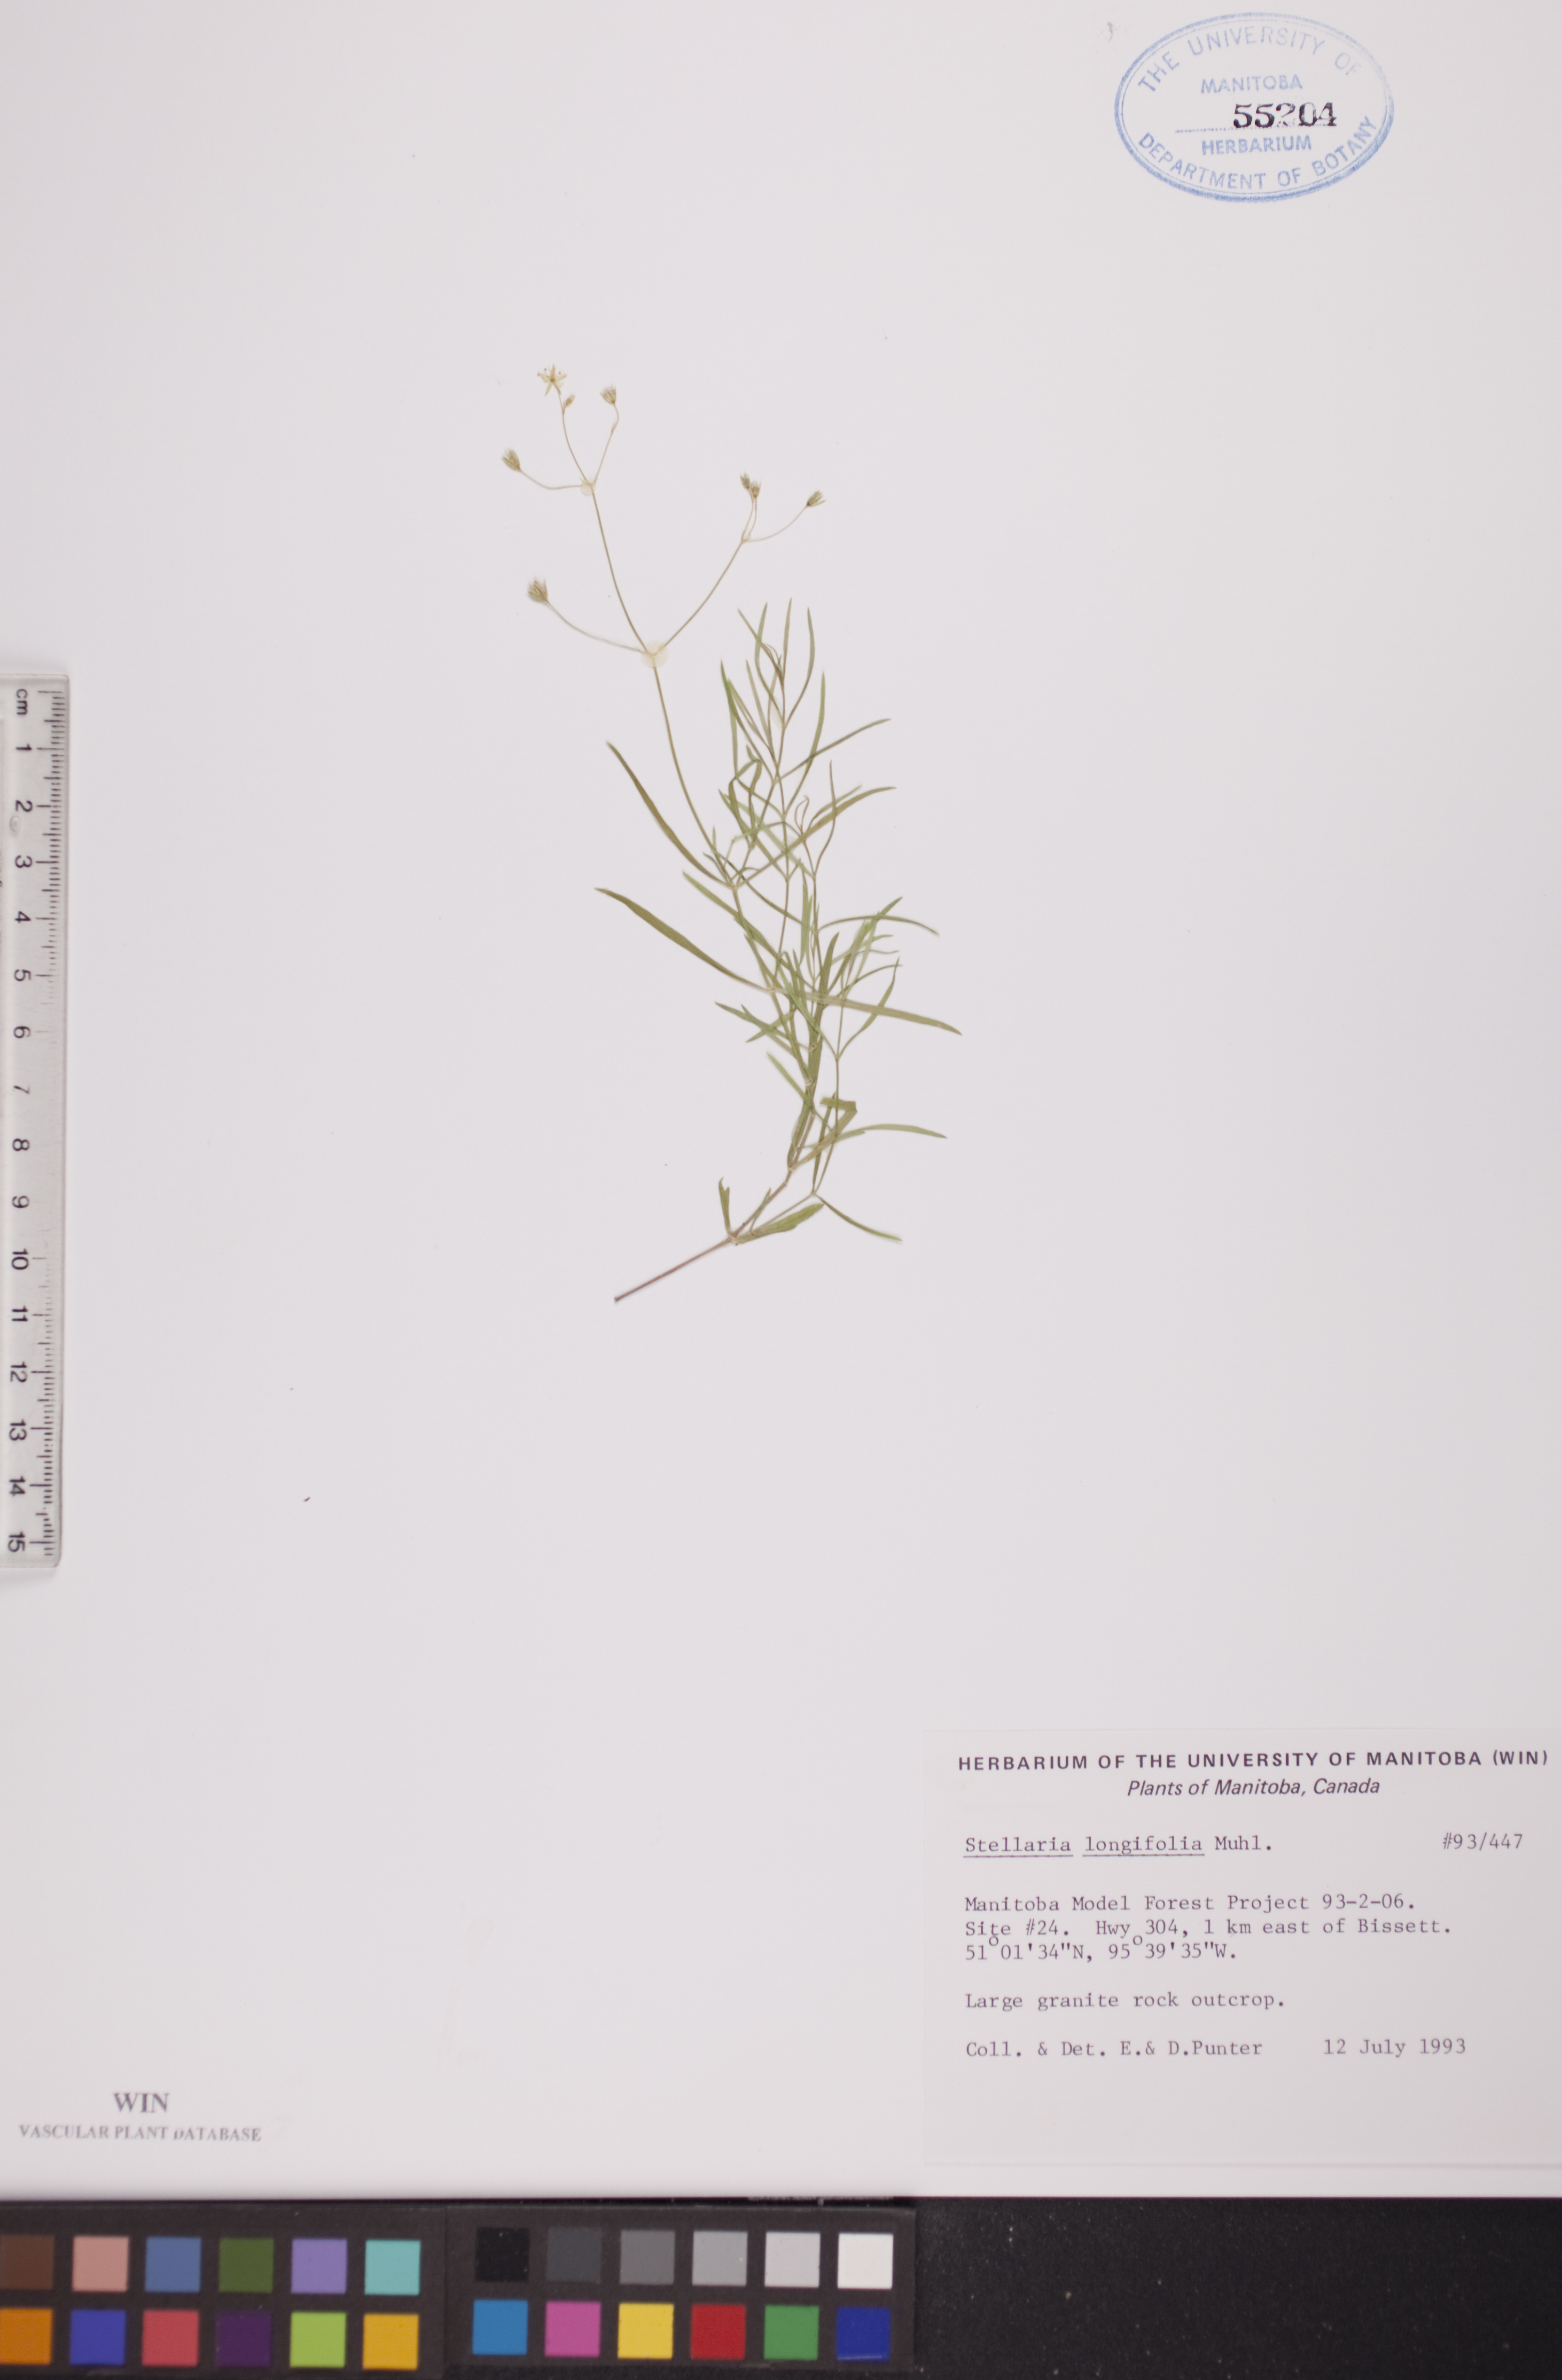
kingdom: Plantae
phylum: Tracheophyta
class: Magnoliopsida
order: Caryophyllales
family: Caryophyllaceae
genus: Stellaria
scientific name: Stellaria longifolia
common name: Long-leaved chickweed
